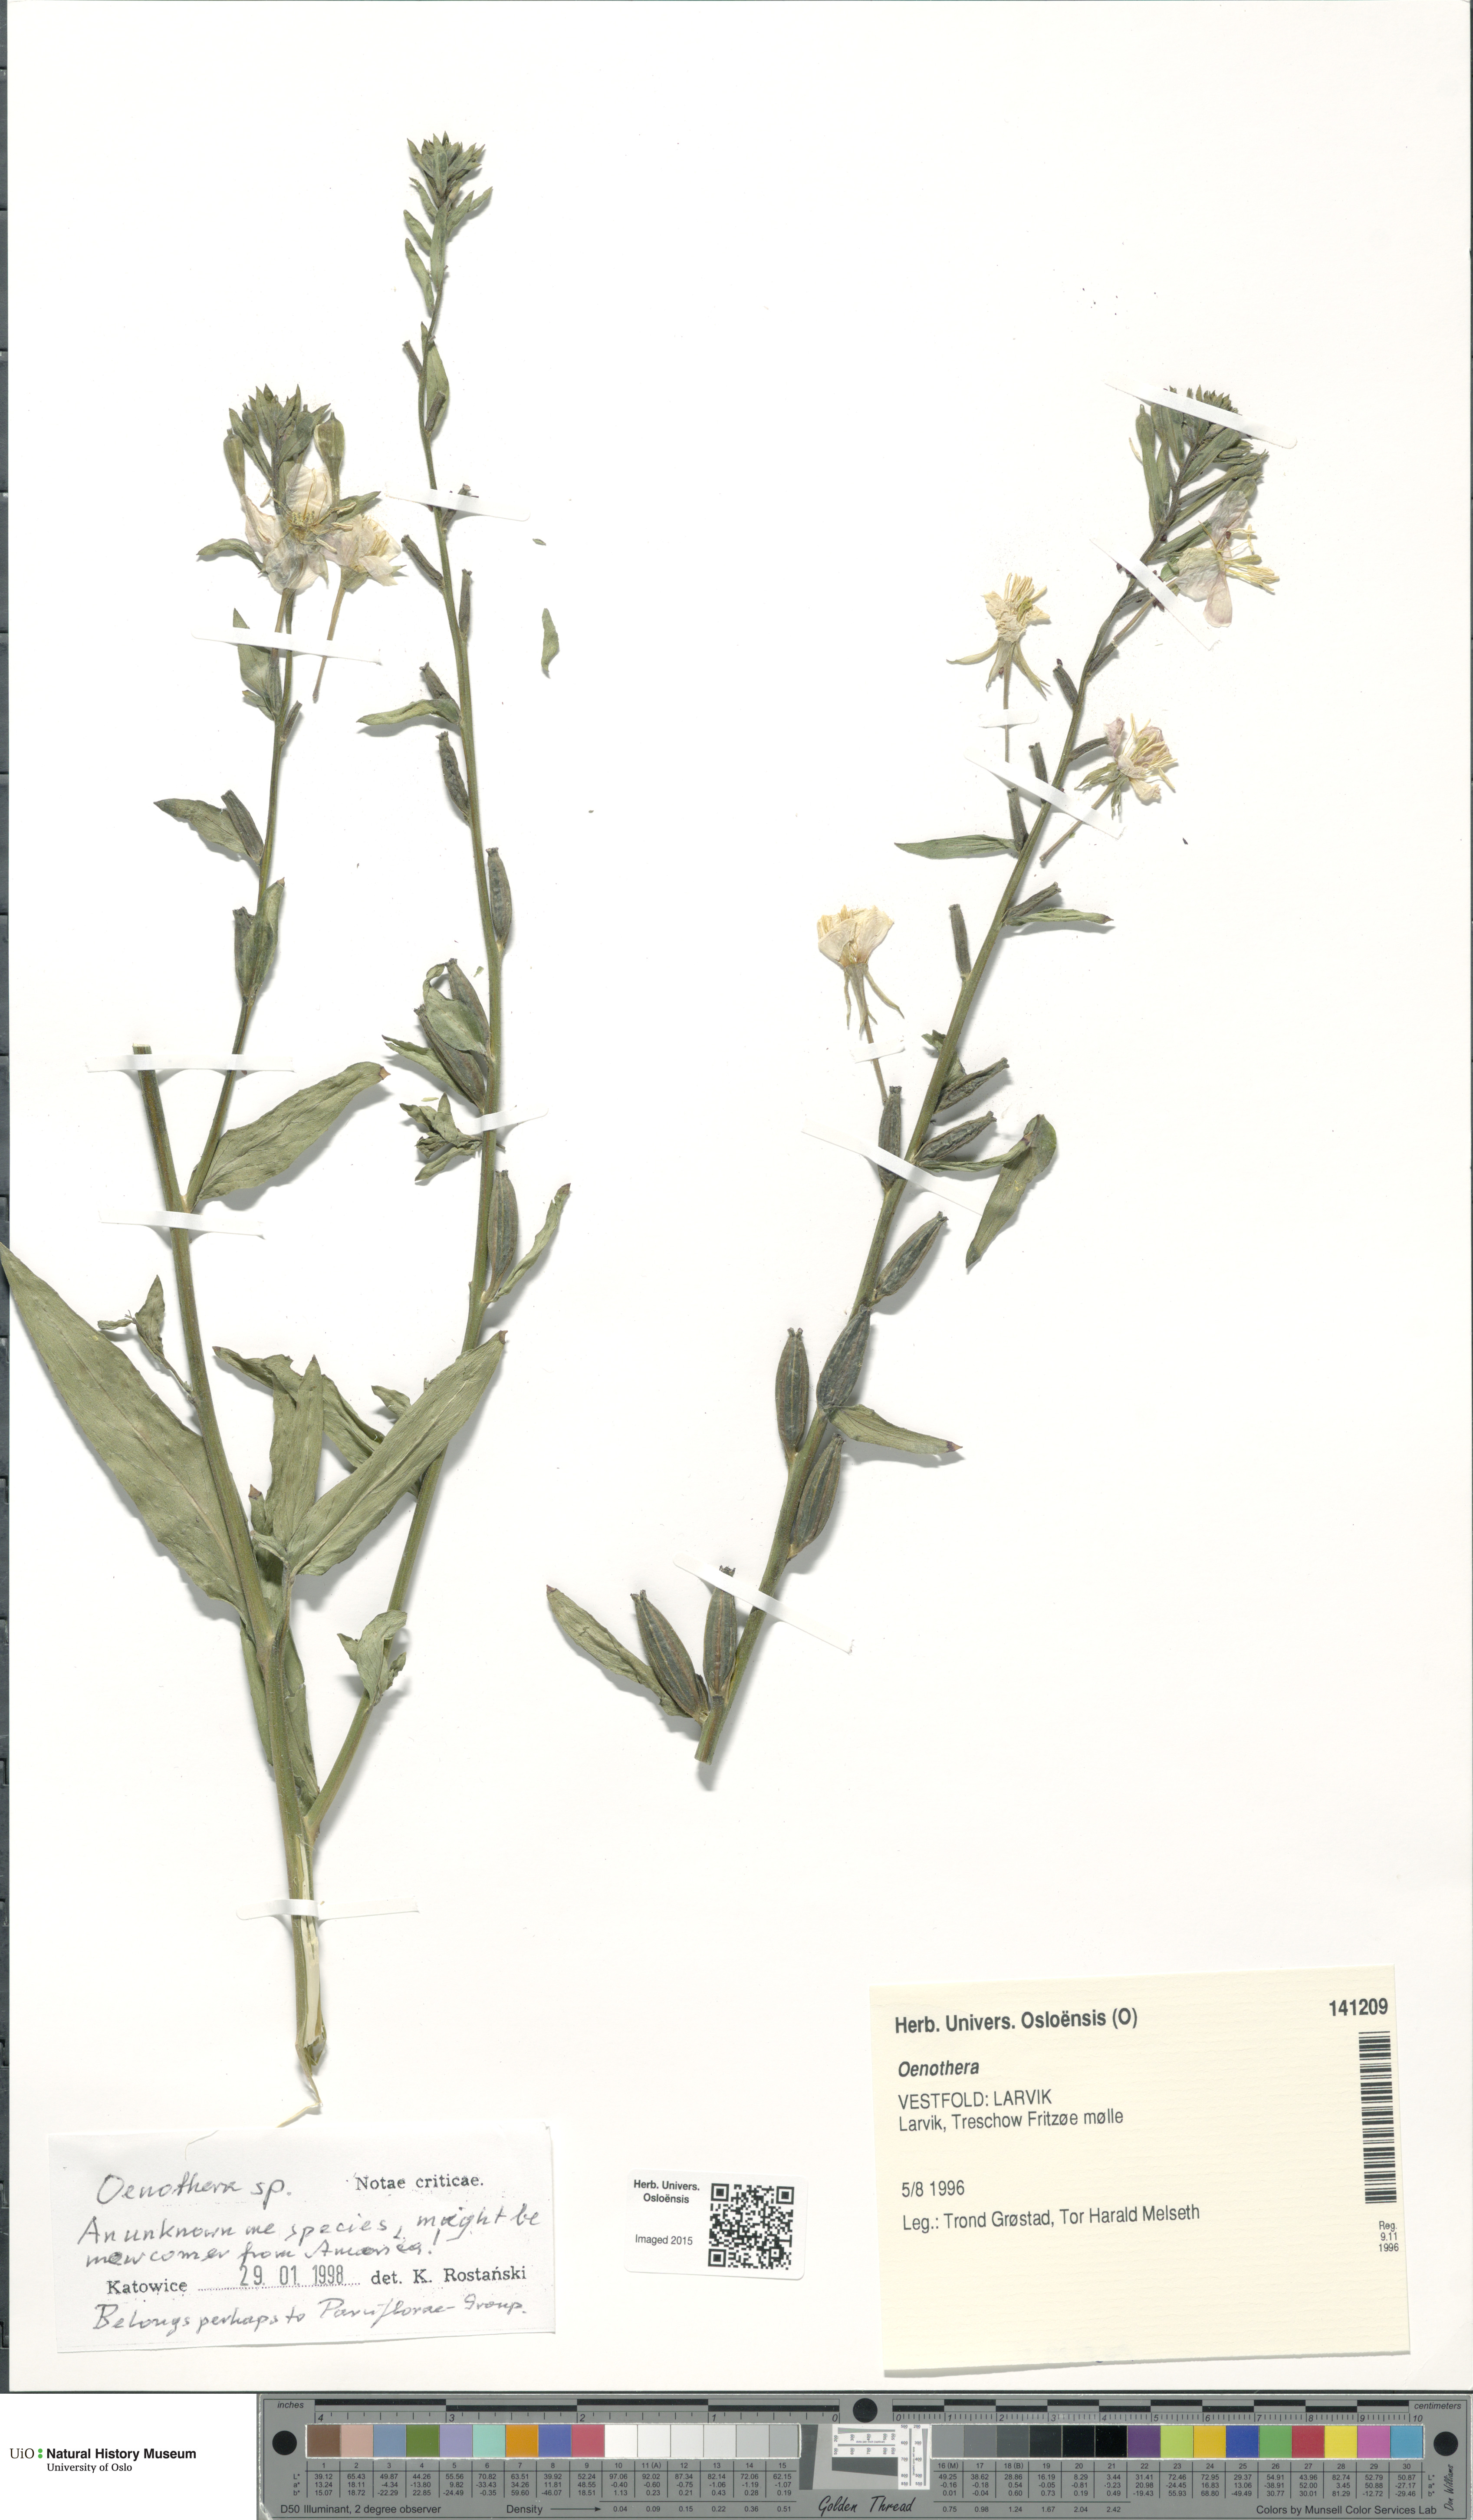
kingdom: Plantae
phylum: Tracheophyta
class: Magnoliopsida
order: Myrtales
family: Onagraceae
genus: Oenothera
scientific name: Oenothera
